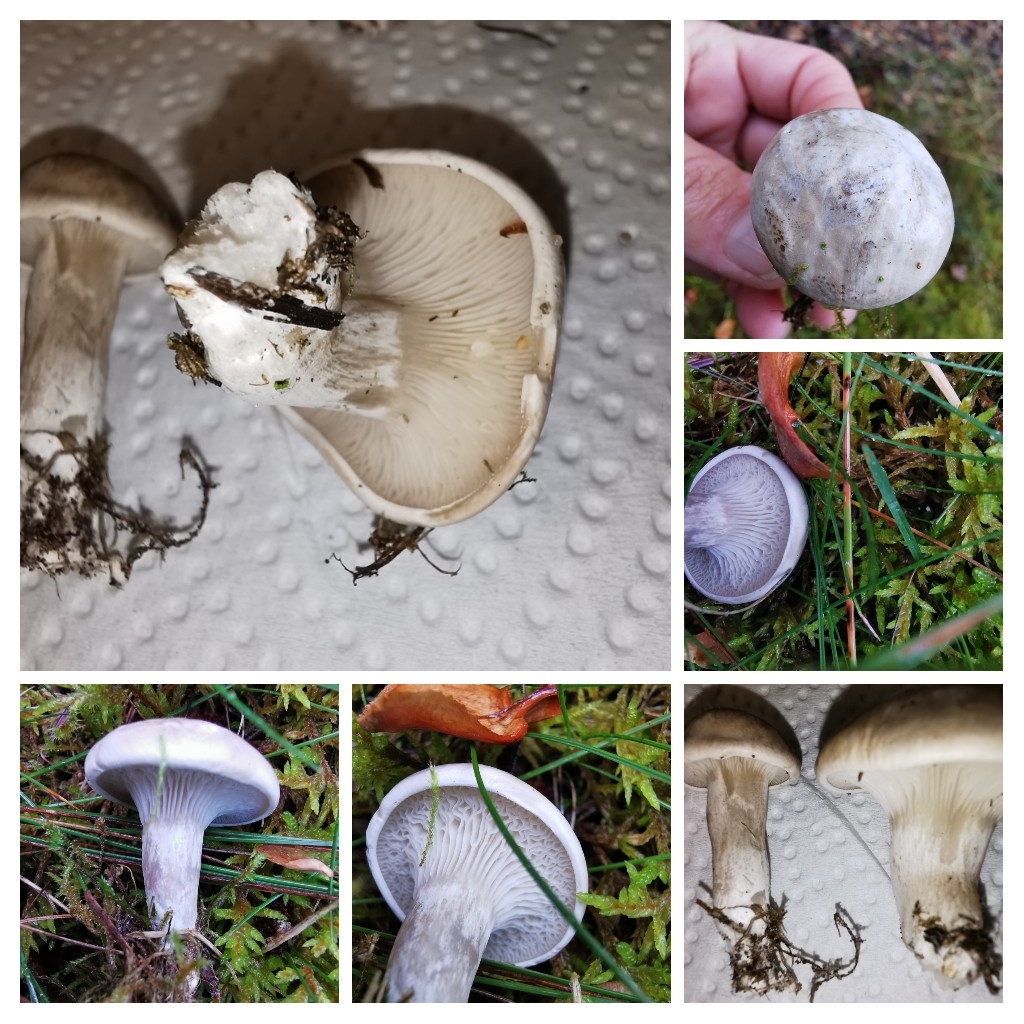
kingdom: Fungi
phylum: Basidiomycota
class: Agaricomycetes
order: Agaricales
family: Entolomataceae
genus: Clitopilus
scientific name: Clitopilus prunulus
